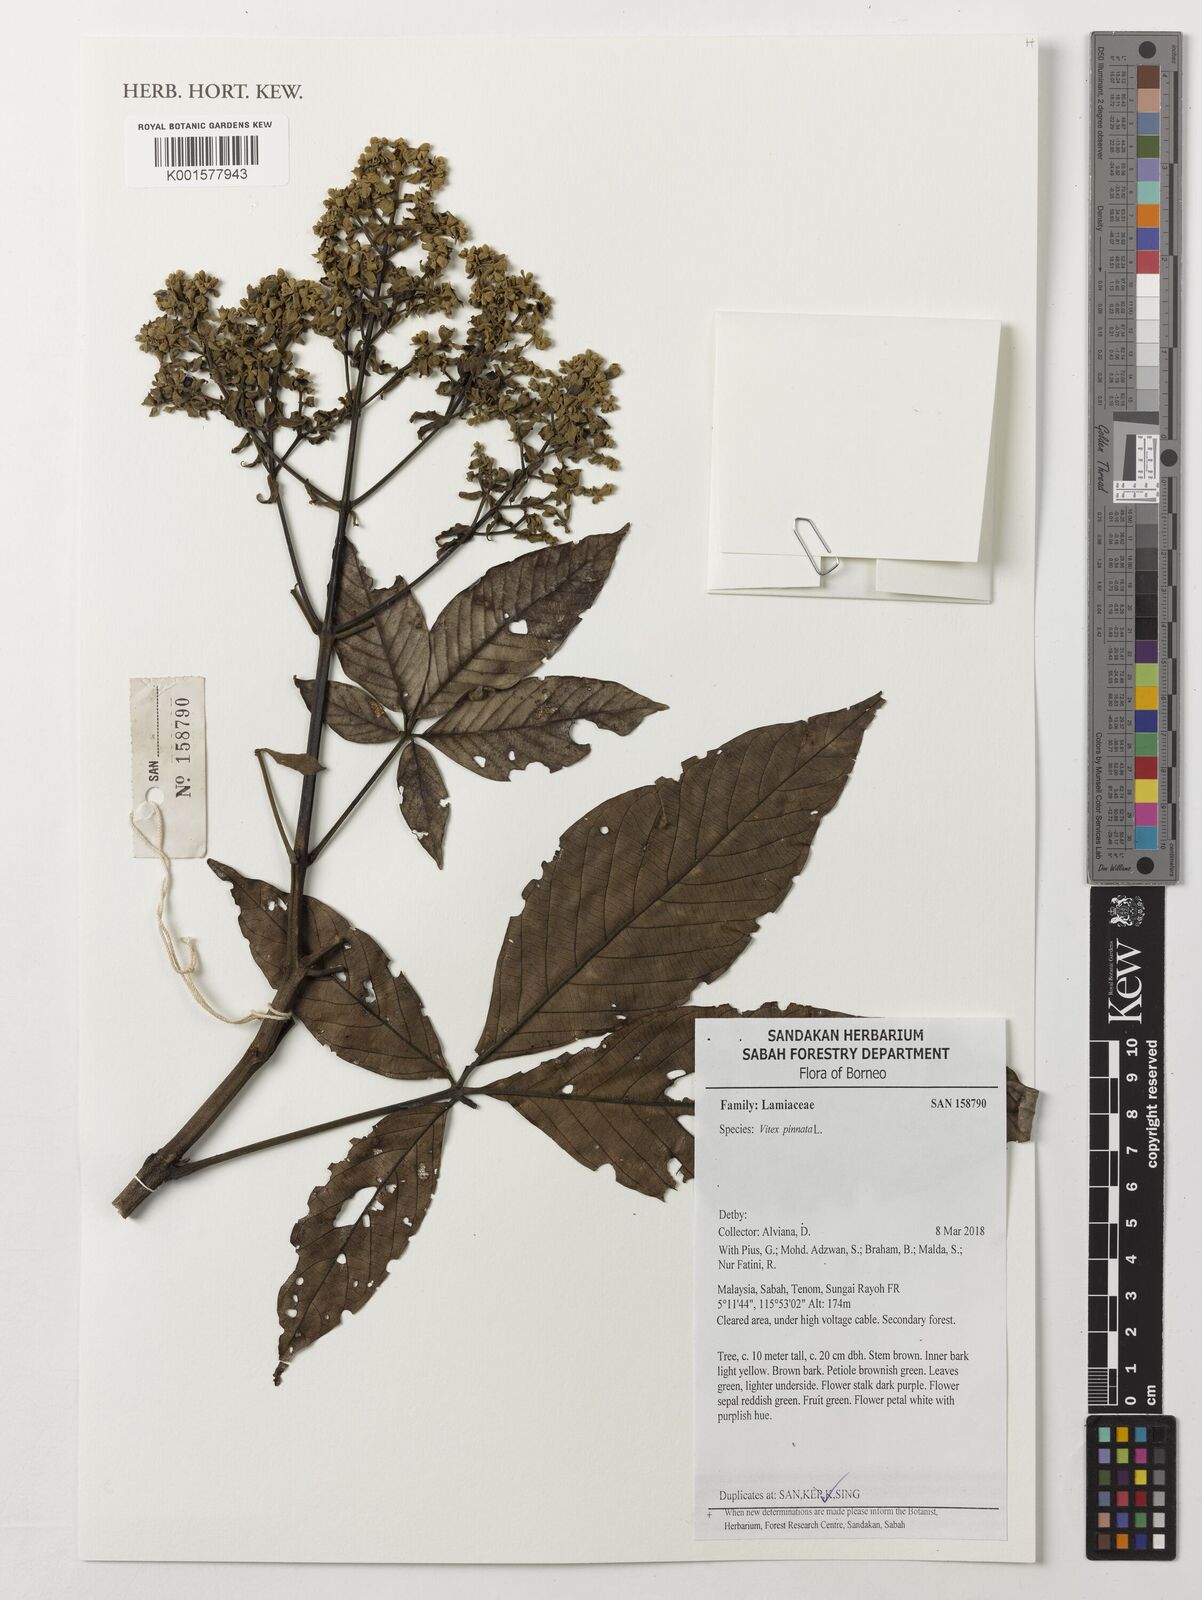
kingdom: Plantae
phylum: Tracheophyta
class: Magnoliopsida
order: Lamiales
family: Lamiaceae
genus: Vitex
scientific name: Vitex pinnata
